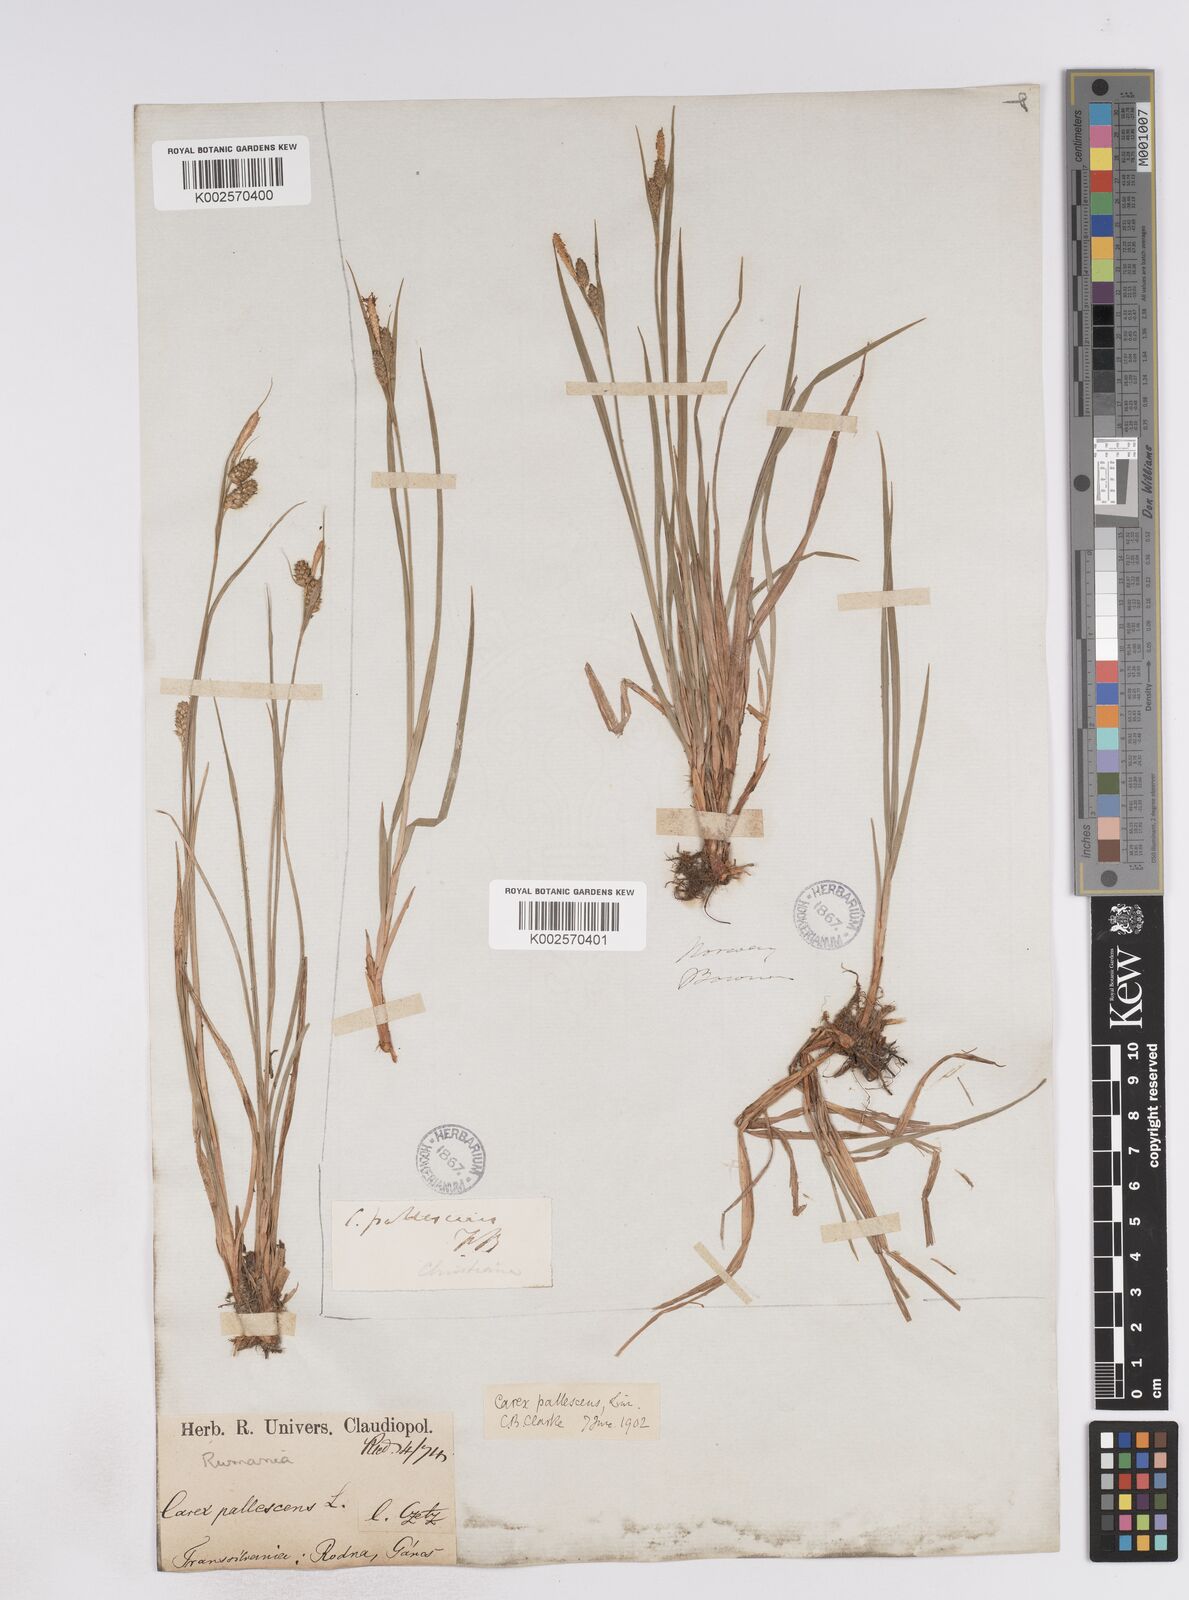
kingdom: Plantae
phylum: Tracheophyta
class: Liliopsida
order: Poales
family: Cyperaceae
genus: Carex
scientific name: Carex pallescens
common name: Pale sedge
